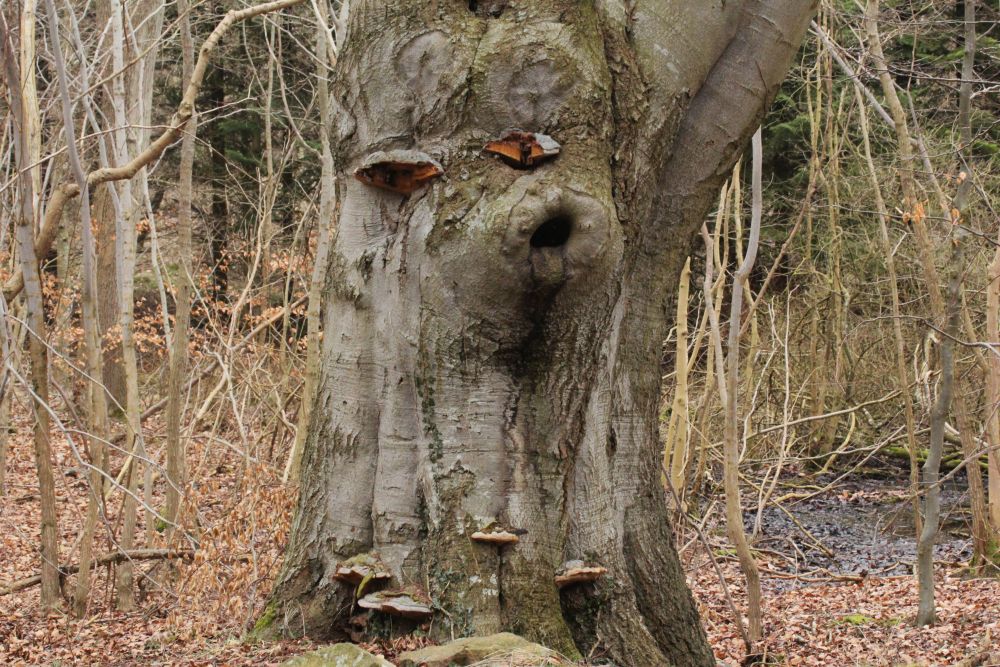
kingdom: Fungi
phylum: Basidiomycota
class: Agaricomycetes
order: Polyporales
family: Polyporaceae
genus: Ganoderma
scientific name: Ganoderma pfeifferi
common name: kobberrød lakporesvamp
